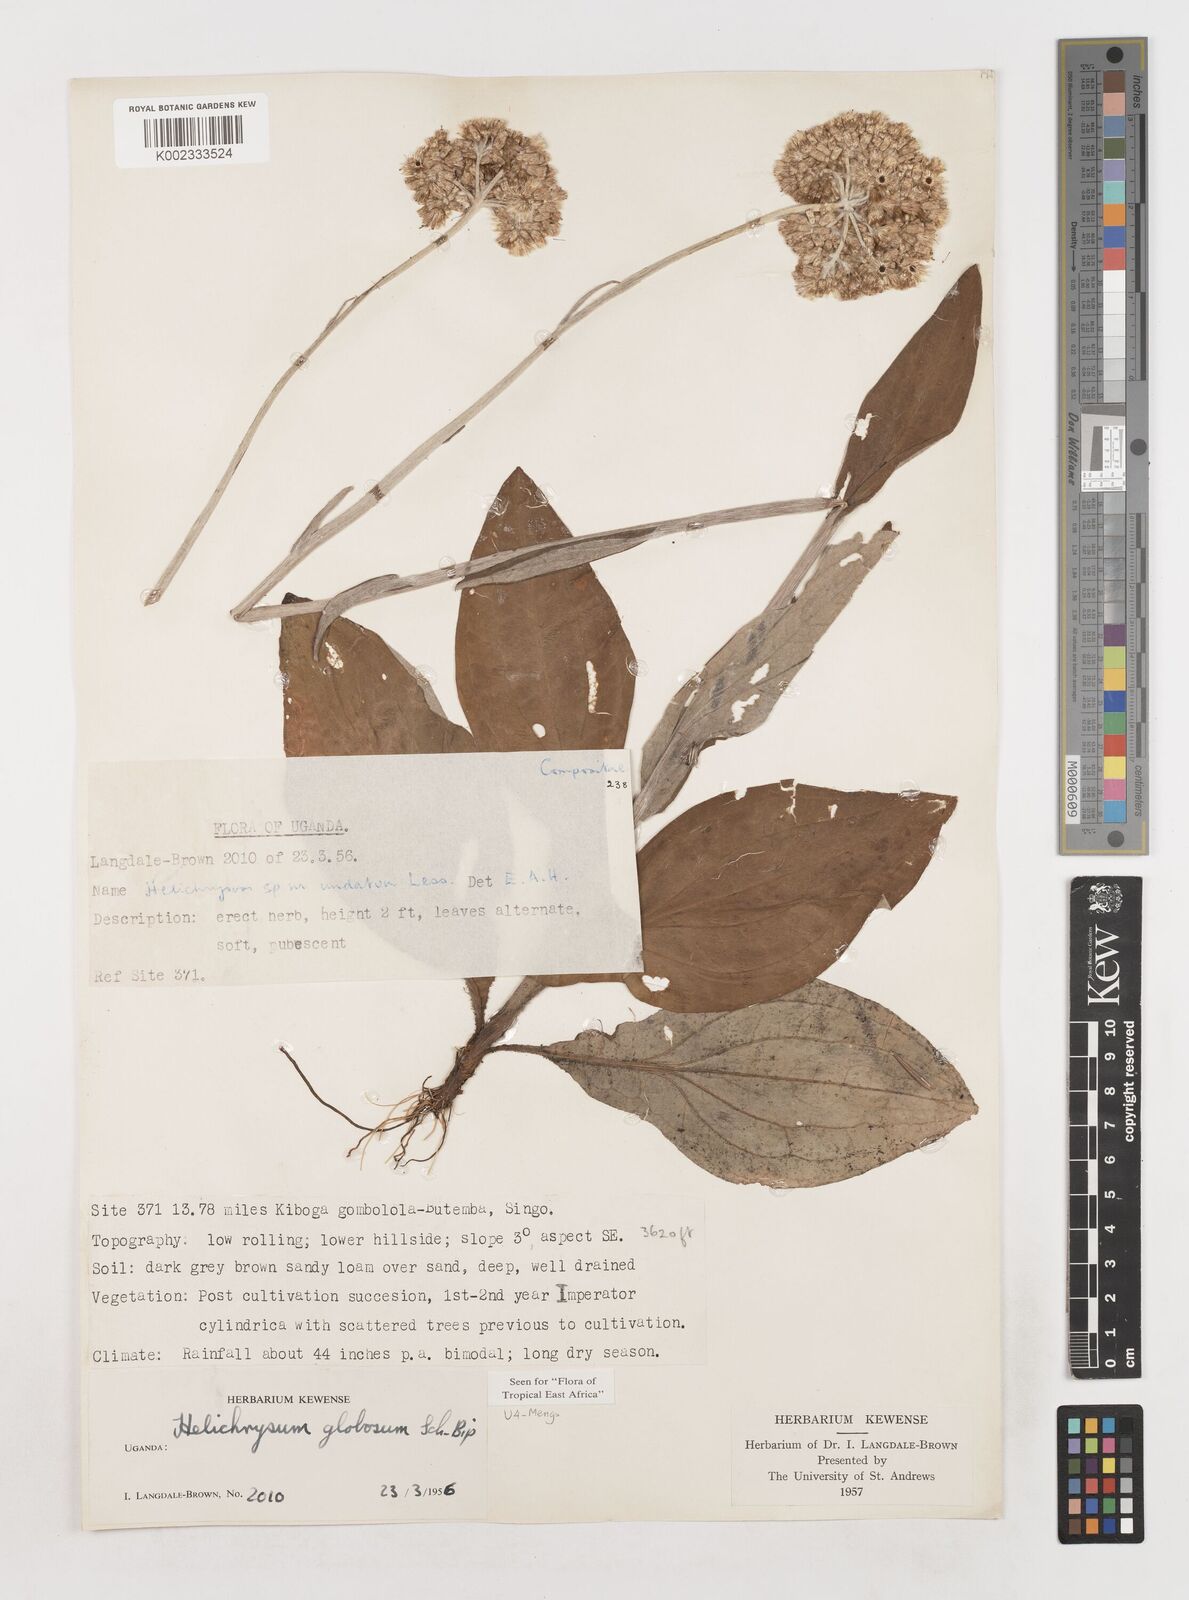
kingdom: Plantae
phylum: Tracheophyta
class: Magnoliopsida
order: Asterales
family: Asteraceae
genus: Helichrysum
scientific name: Helichrysum globosum
